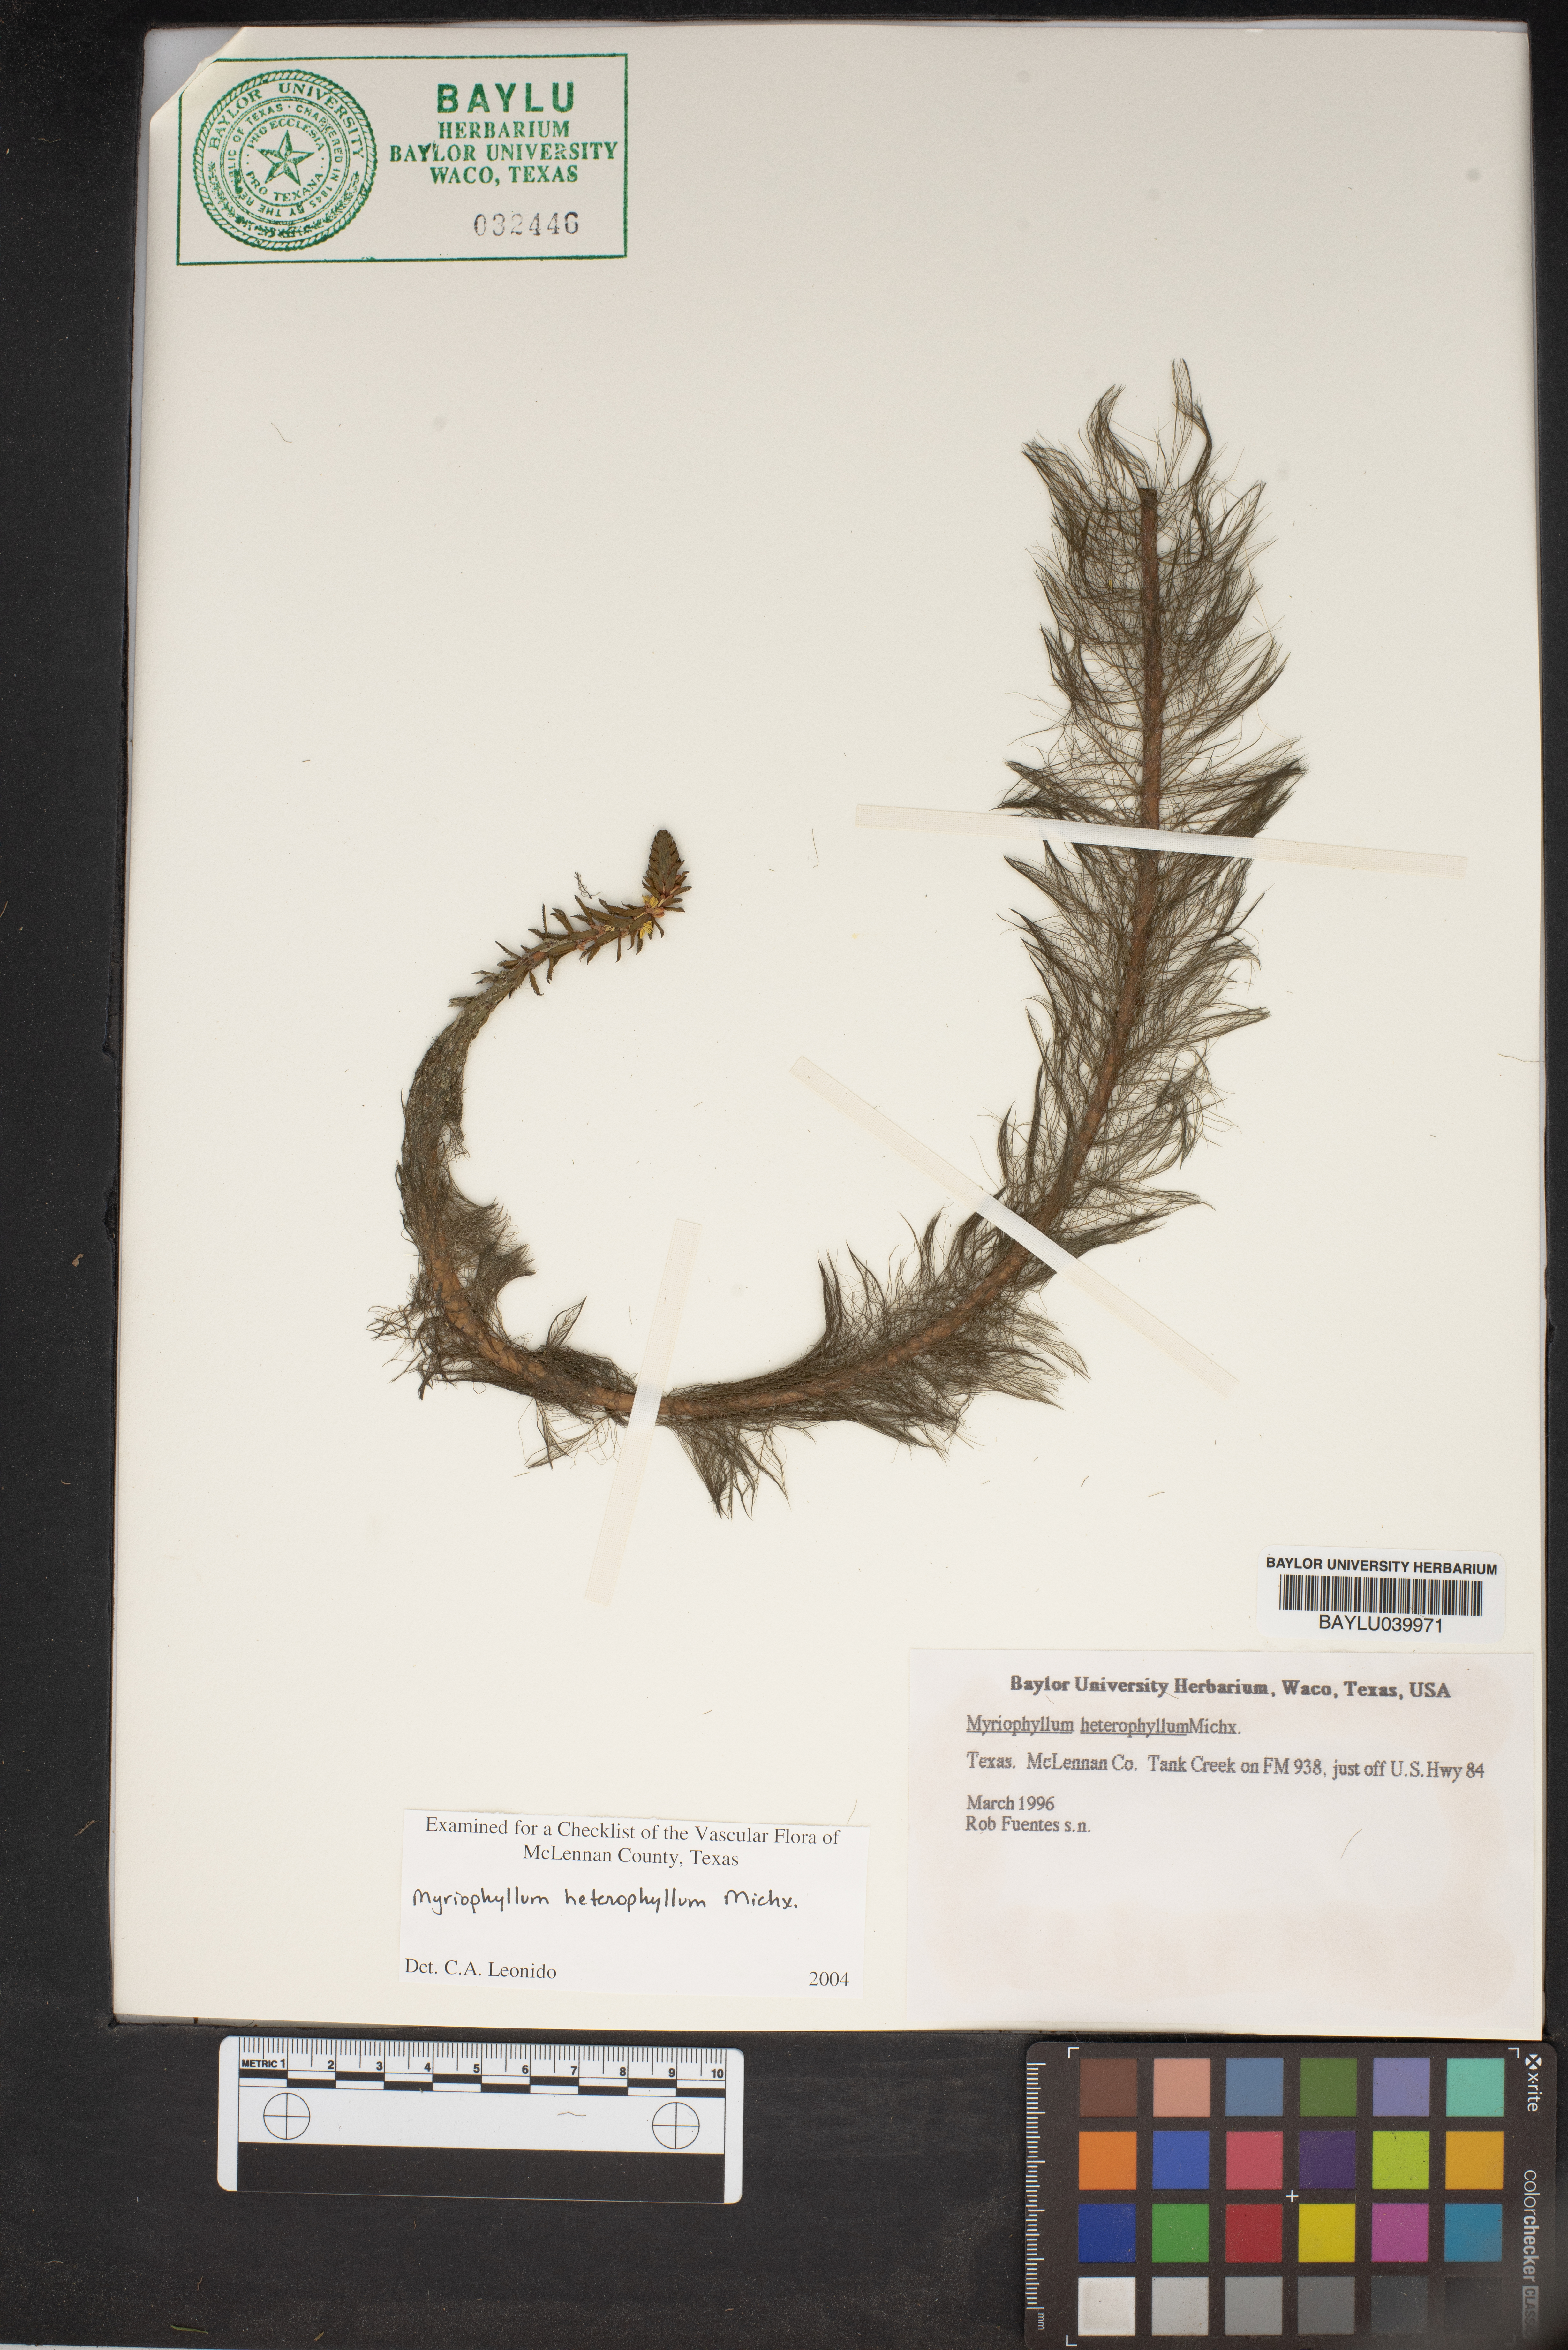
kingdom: Plantae
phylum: Tracheophyta
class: Magnoliopsida
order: Saxifragales
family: Haloragaceae
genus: Myriophyllum
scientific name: Myriophyllum heterophyllum
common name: Variable watermilfoil
